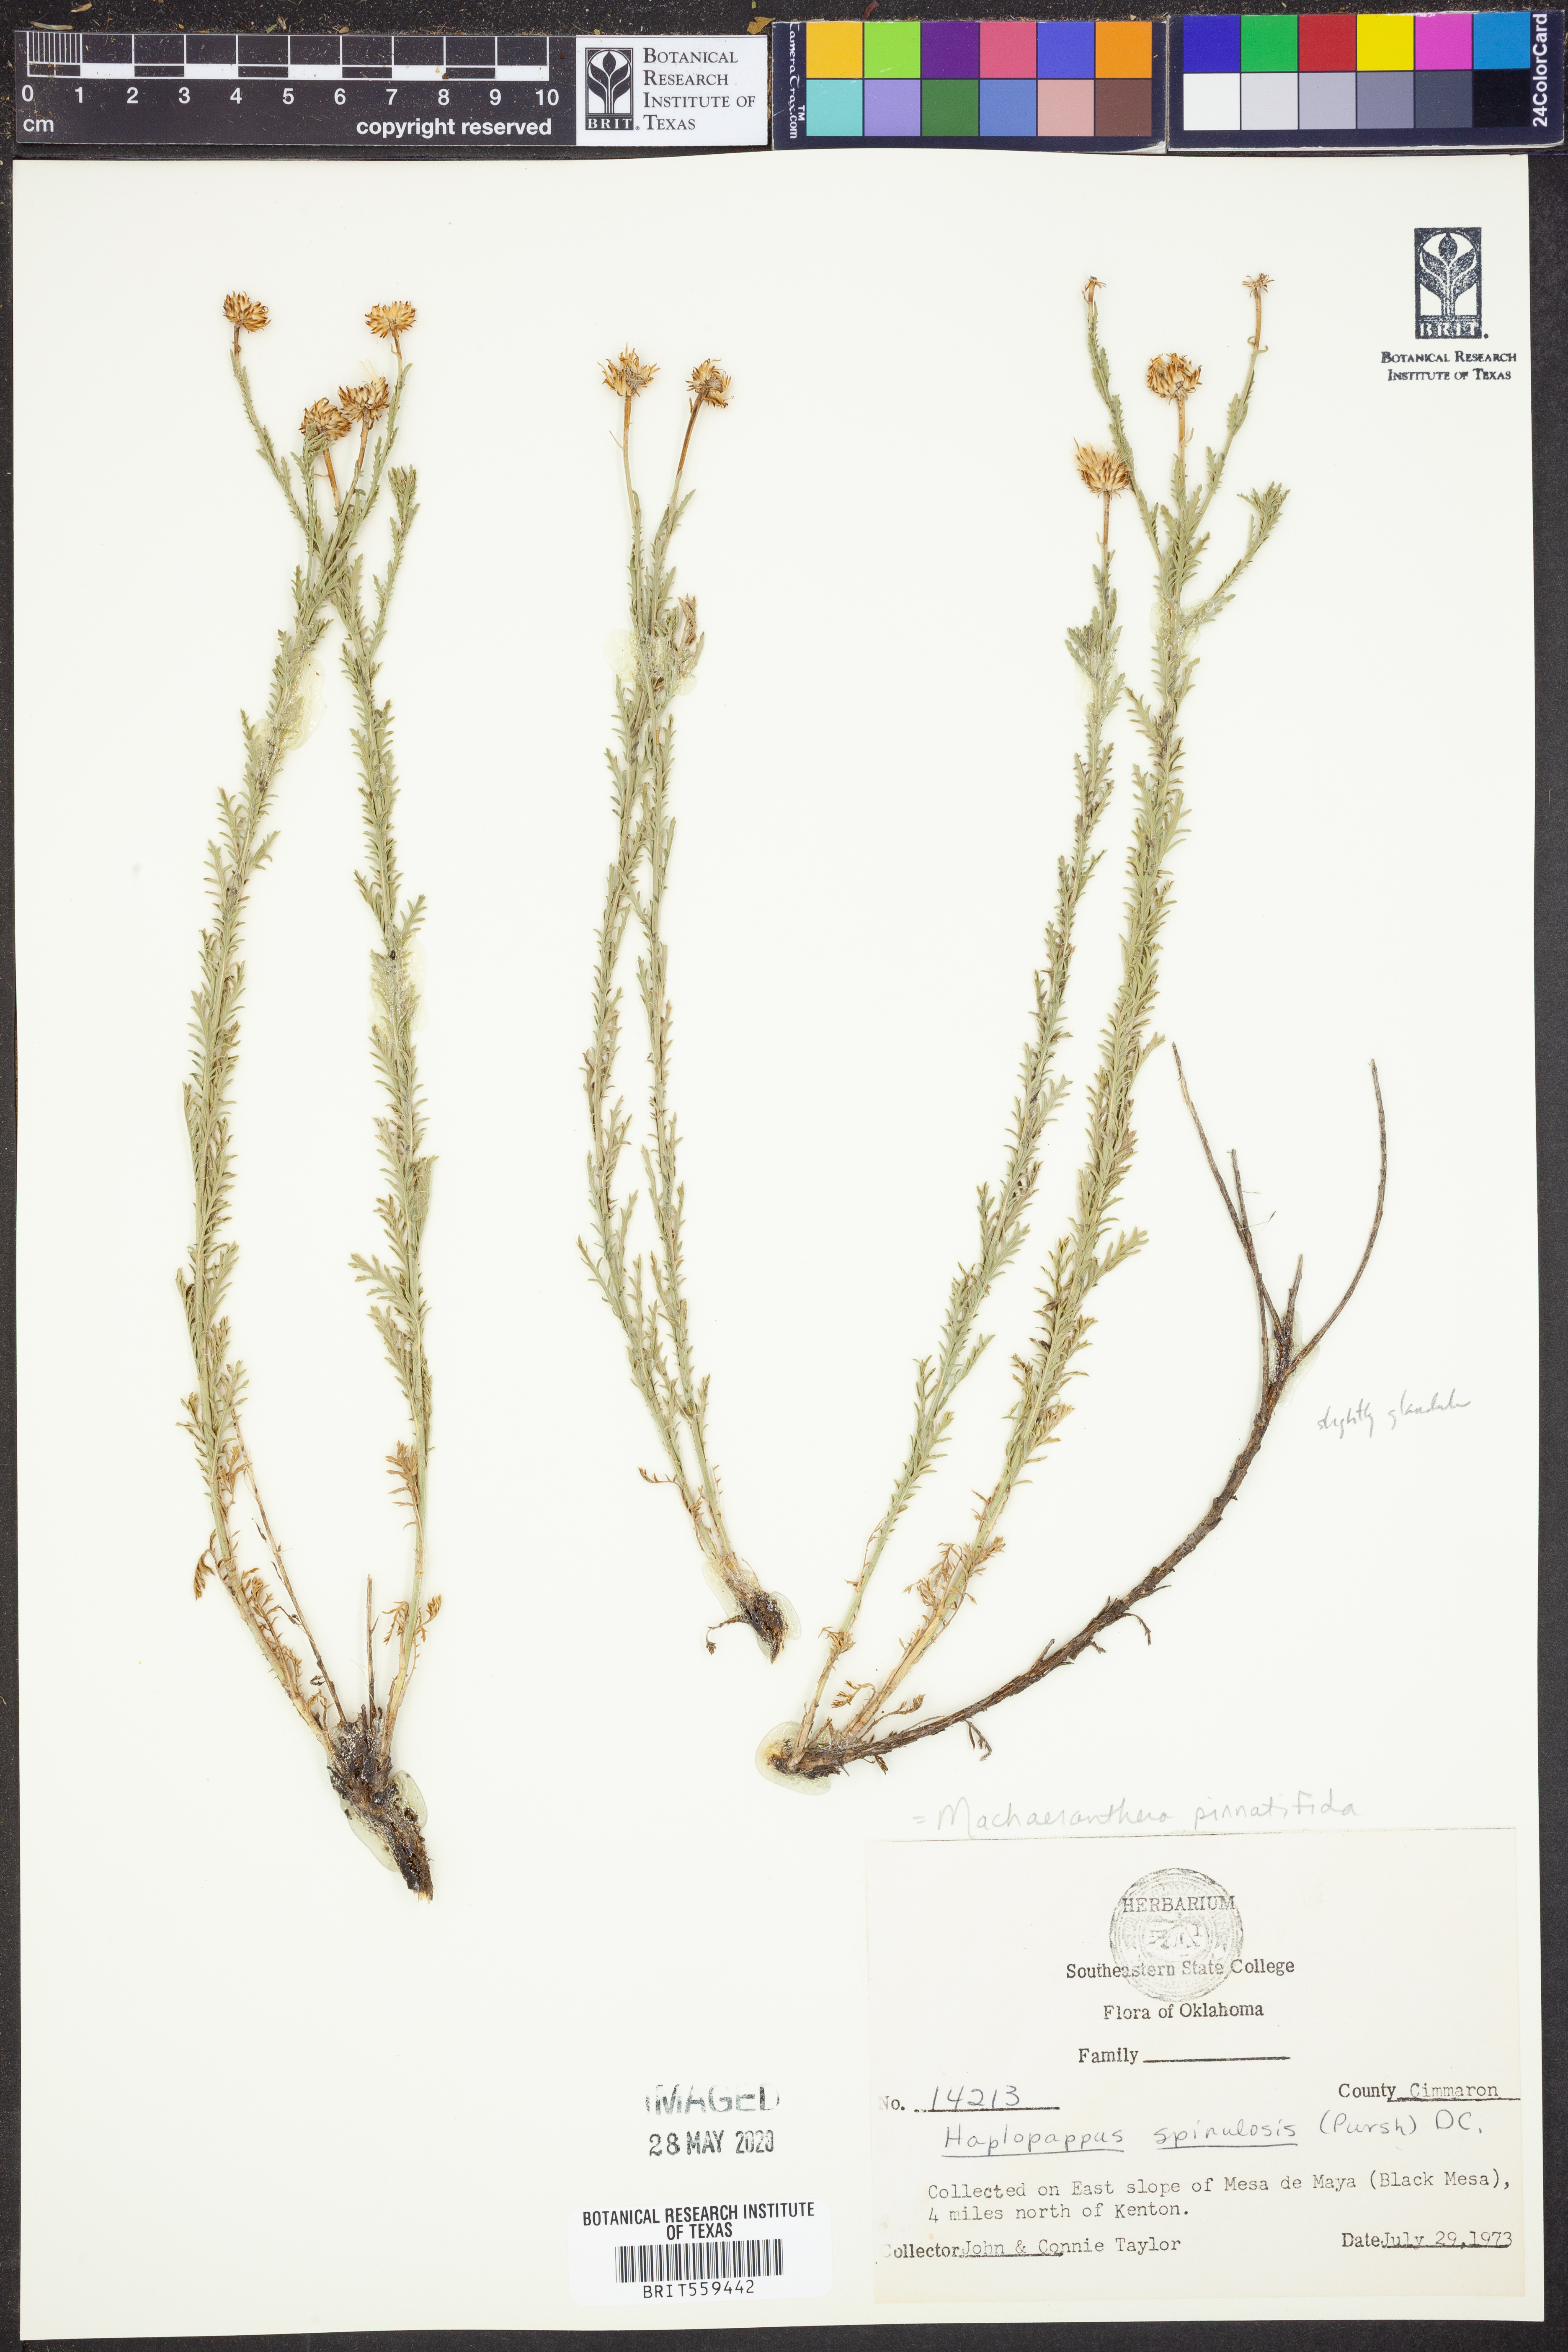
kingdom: Plantae
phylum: Tracheophyta
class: Magnoliopsida
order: Asterales
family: Asteraceae
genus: Xanthisma
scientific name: Xanthisma spinulosum
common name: Spiny goldenweed
